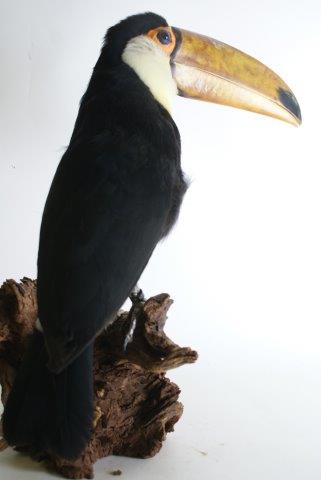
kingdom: Animalia
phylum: Chordata
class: Aves
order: Piciformes
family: Ramphastidae
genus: Ramphastos
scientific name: Ramphastos toco
